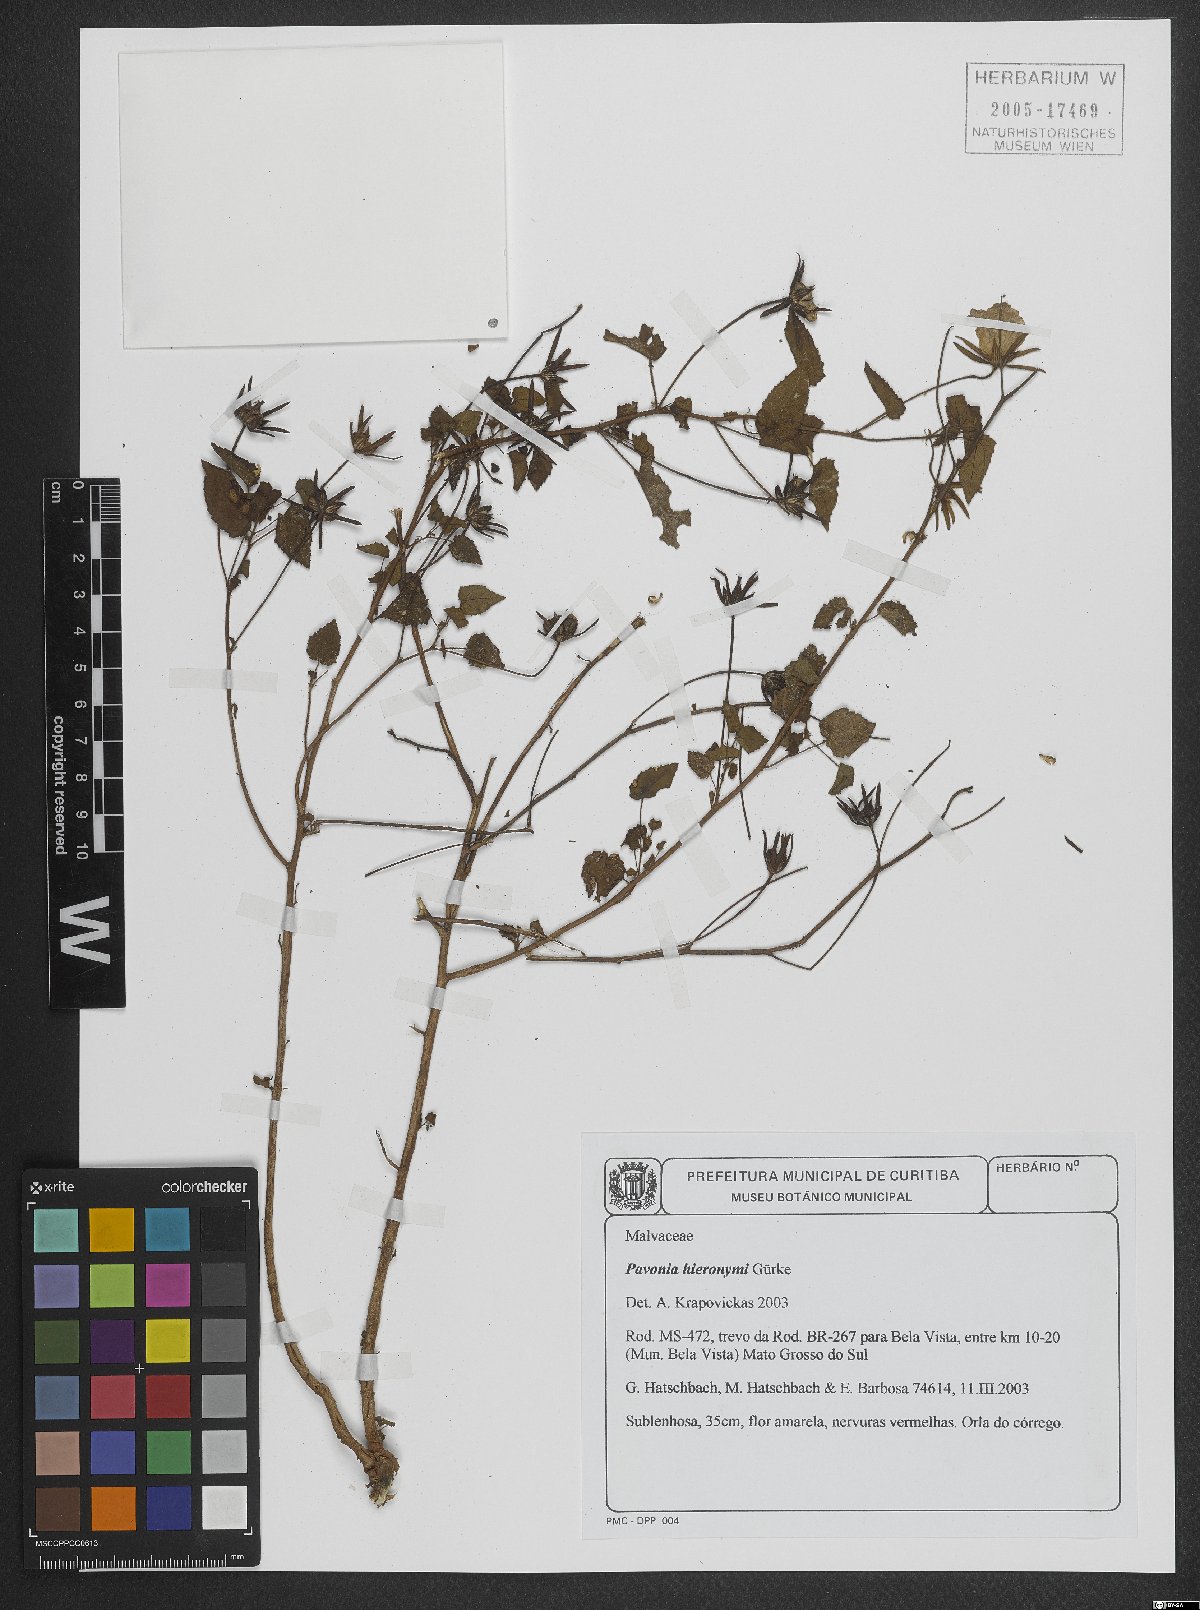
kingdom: Plantae
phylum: Tracheophyta
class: Magnoliopsida
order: Malvales
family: Malvaceae
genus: Pavonia
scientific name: Pavonia hieronymi
